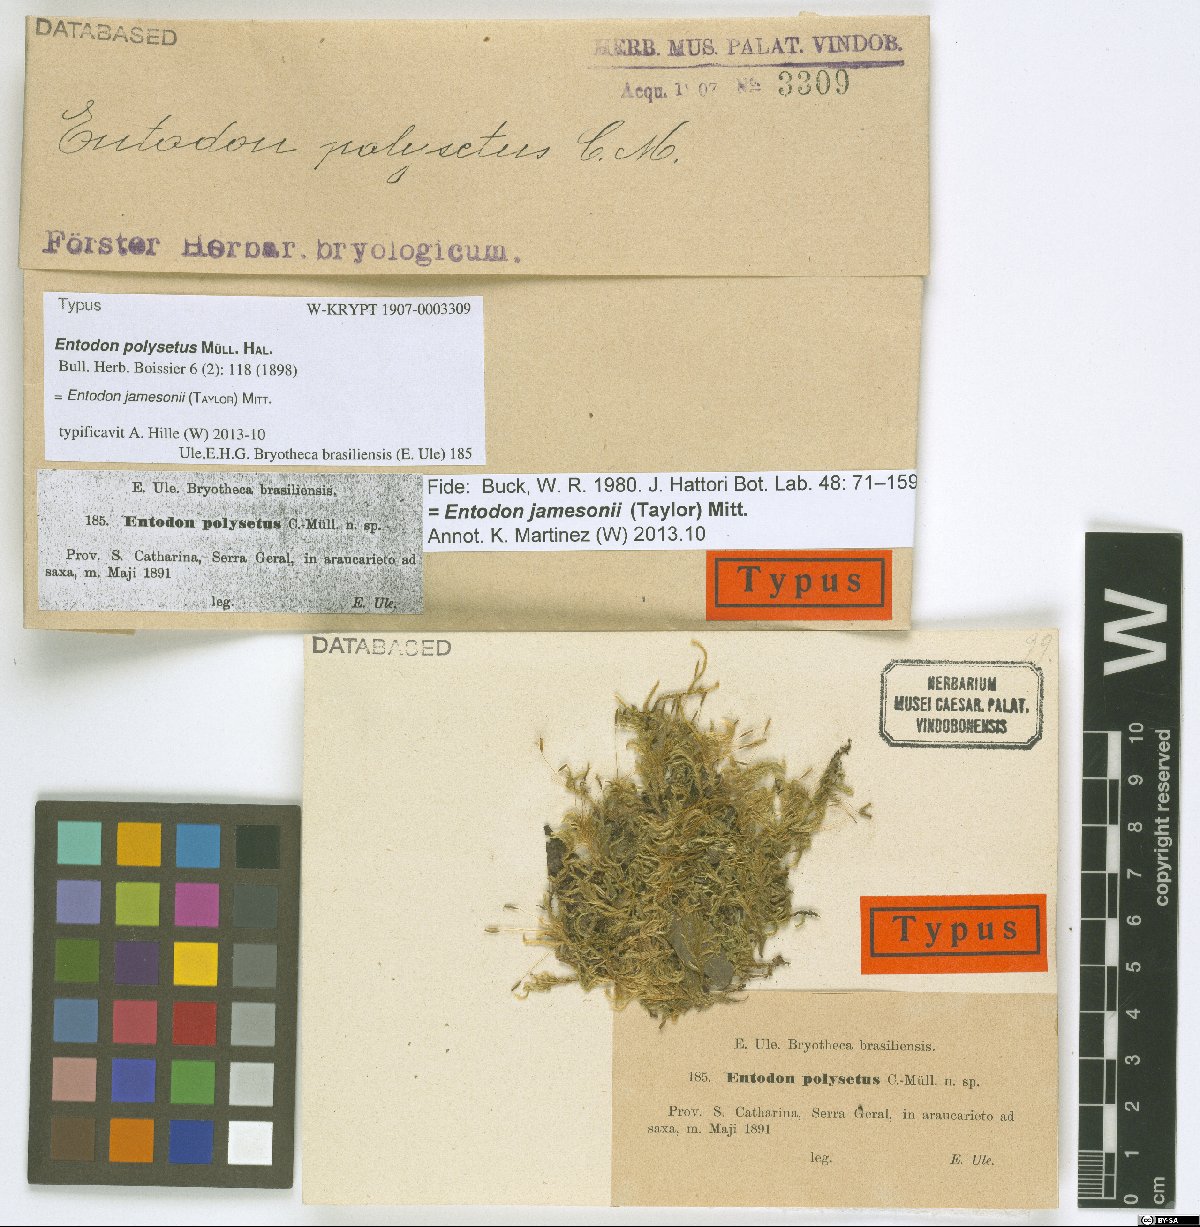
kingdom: Plantae
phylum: Bryophyta
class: Bryopsida
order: Hypnales
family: Entodontaceae
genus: Entodon
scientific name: Entodon jamesonii
